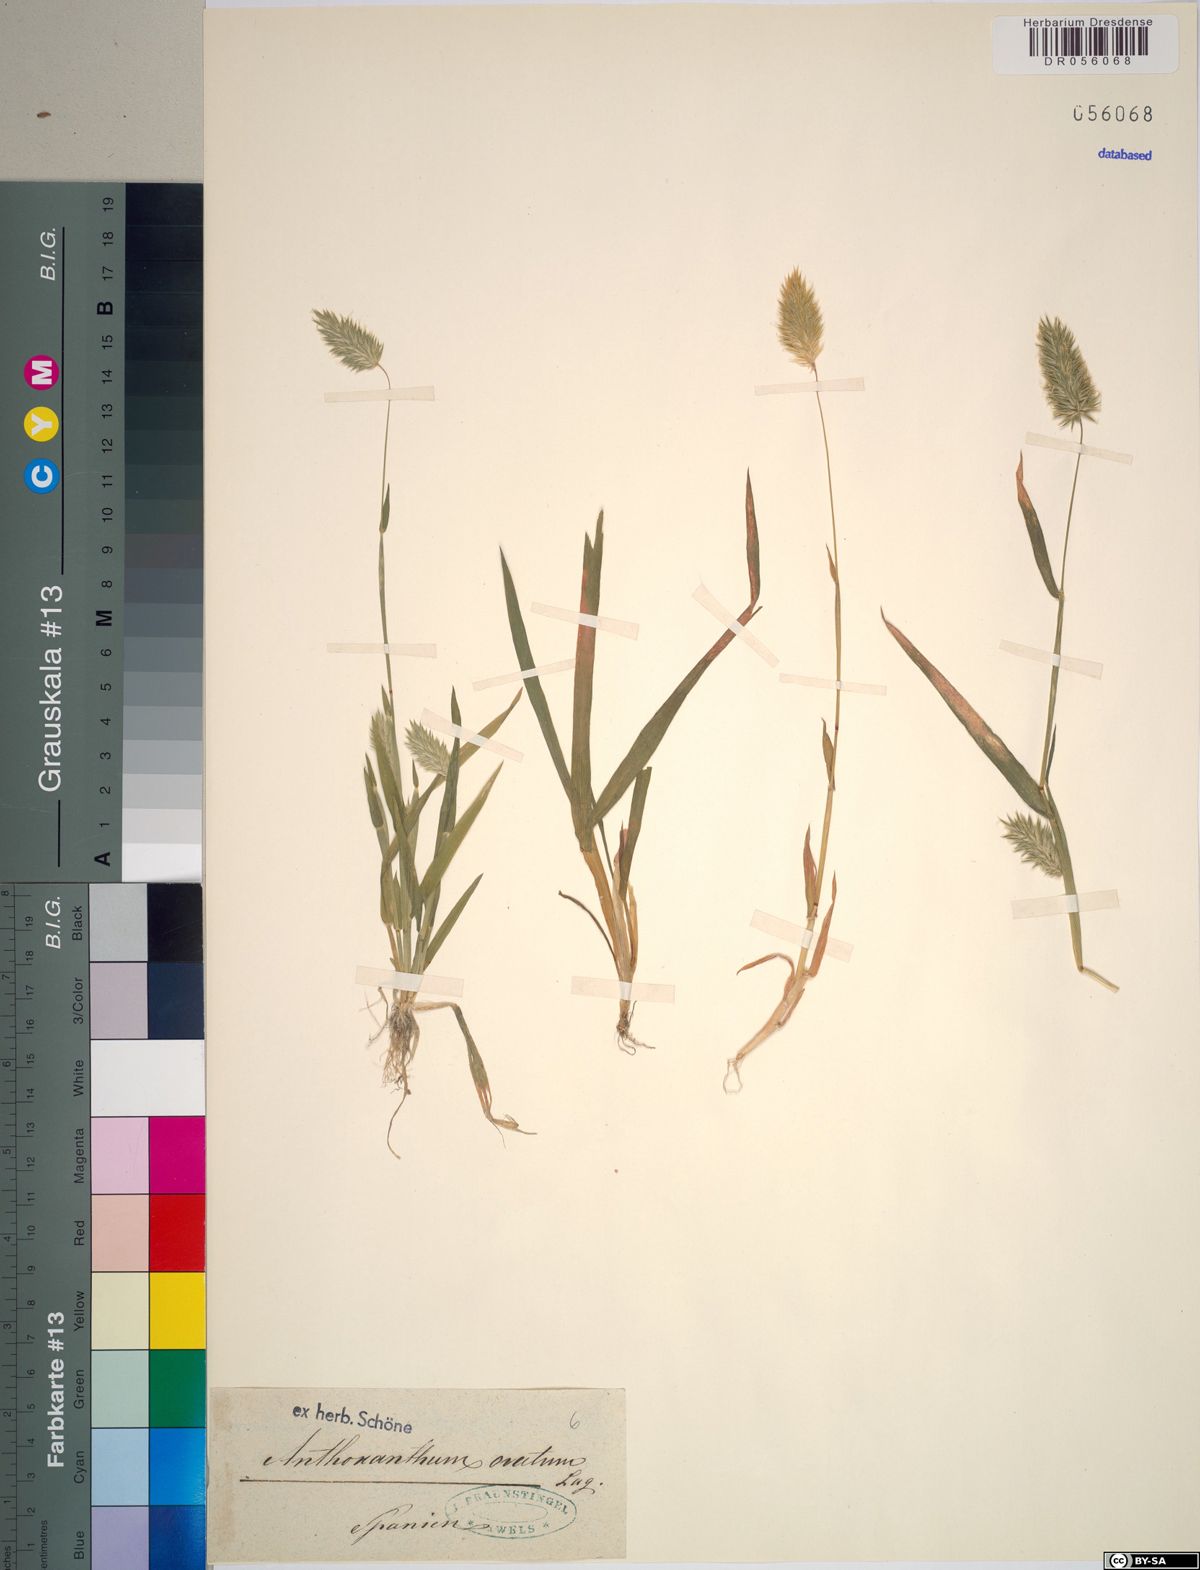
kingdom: Plantae
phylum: Tracheophyta
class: Liliopsida
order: Poales
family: Poaceae
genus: Anthoxanthum
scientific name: Anthoxanthum ovatum
